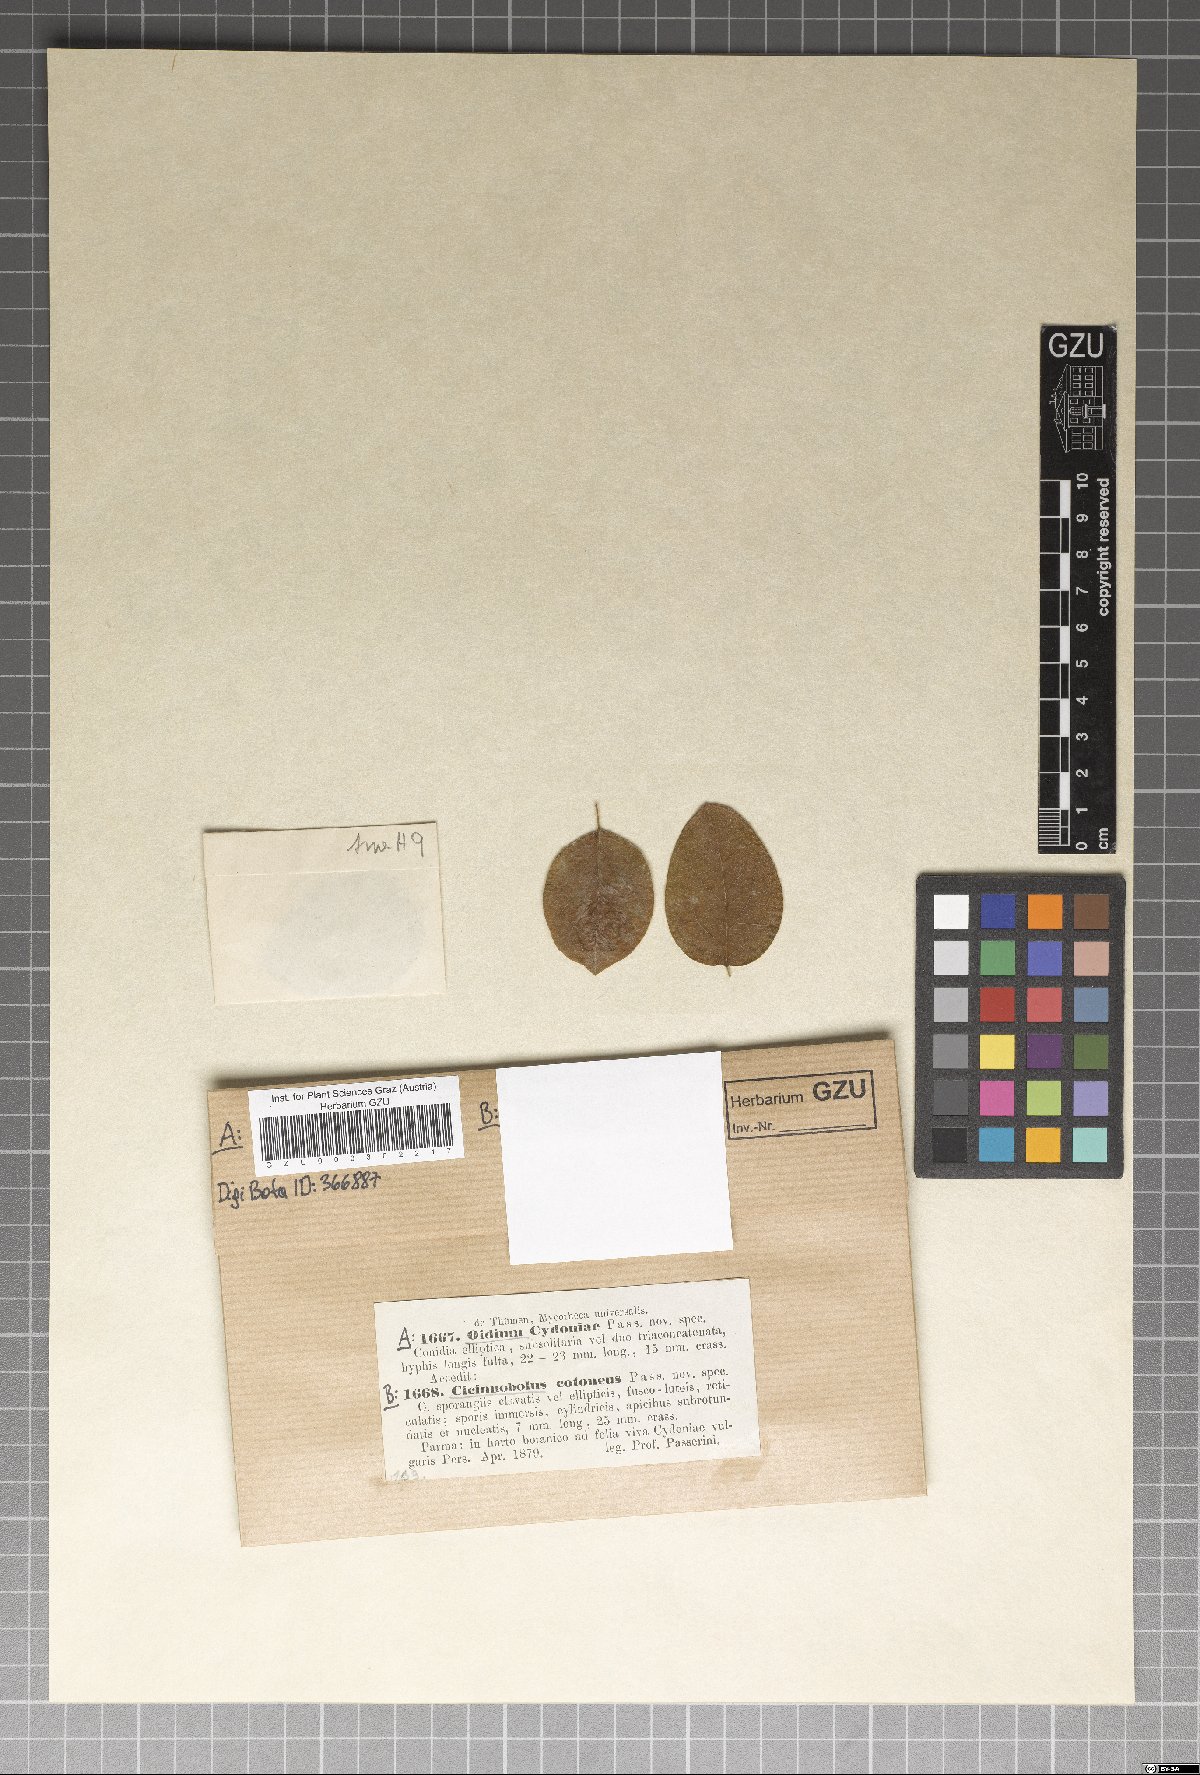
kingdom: Fungi
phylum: Ascomycota
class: Leotiomycetes
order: Helotiales
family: Erysiphaceae
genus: Podosphaera
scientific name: Podosphaera clandestina
